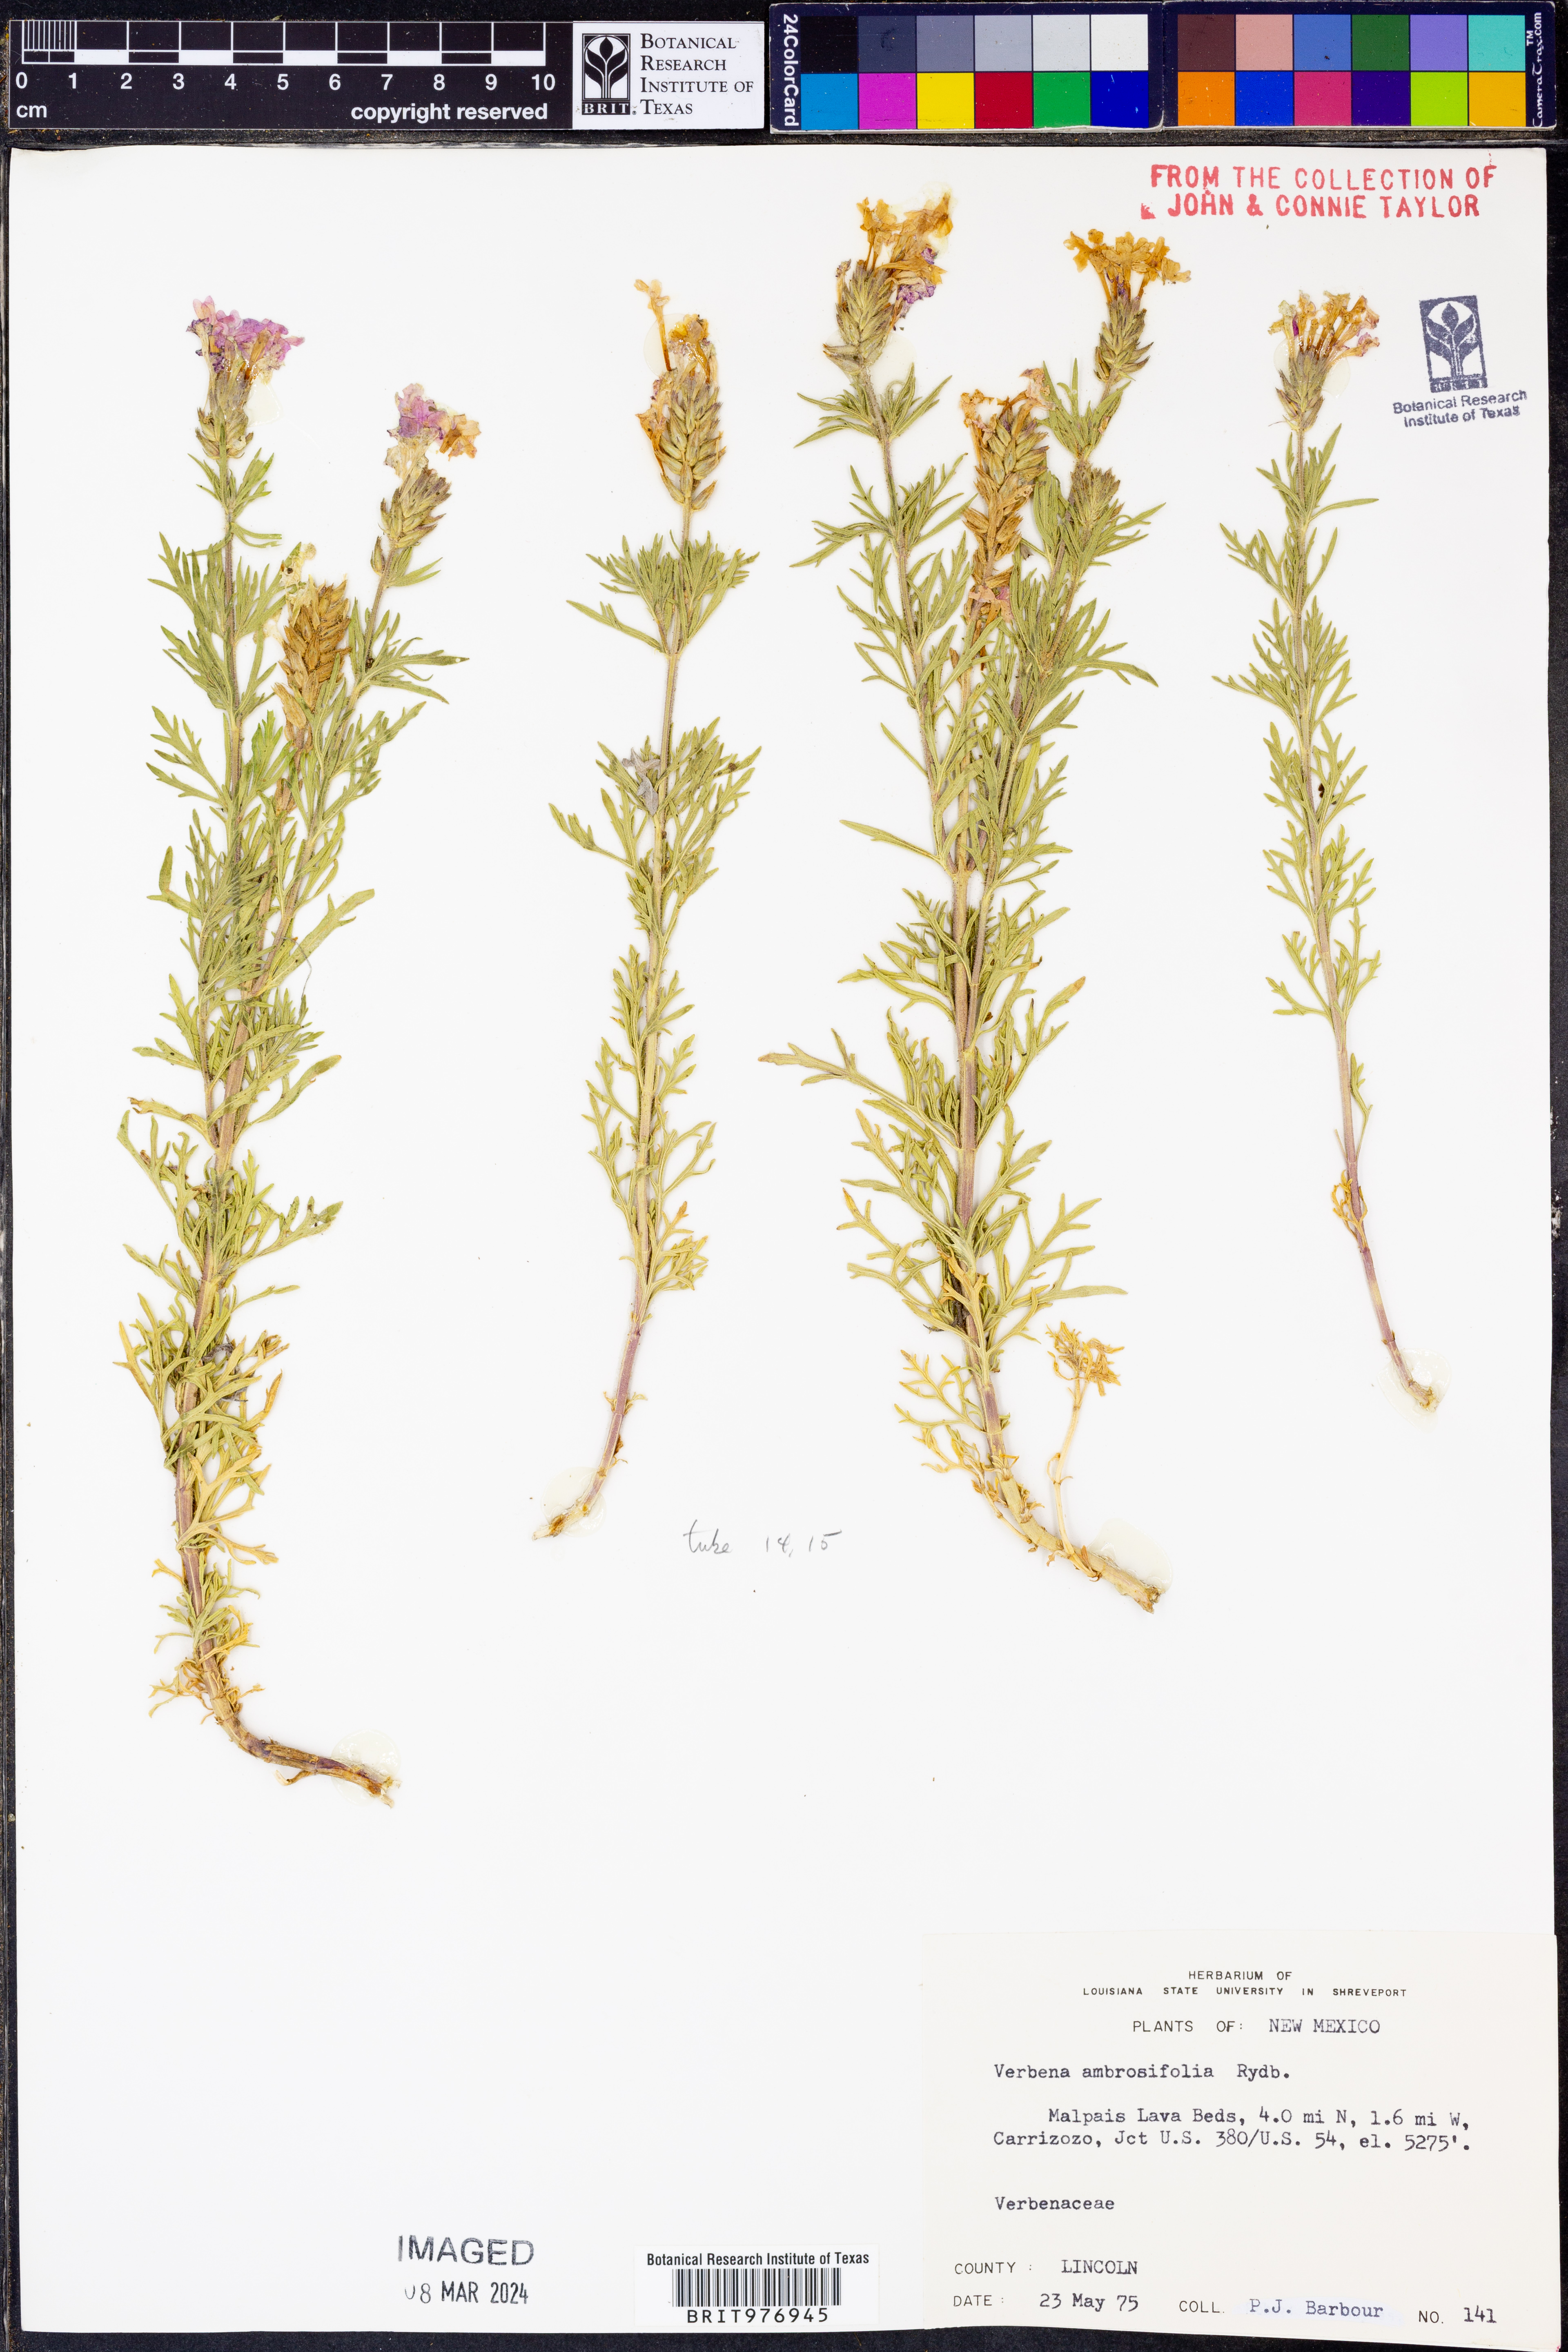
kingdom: Plantae
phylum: Tracheophyta
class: Magnoliopsida
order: Lamiales
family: Verbenaceae
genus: Verbena
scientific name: Verbena bipinnatifida
